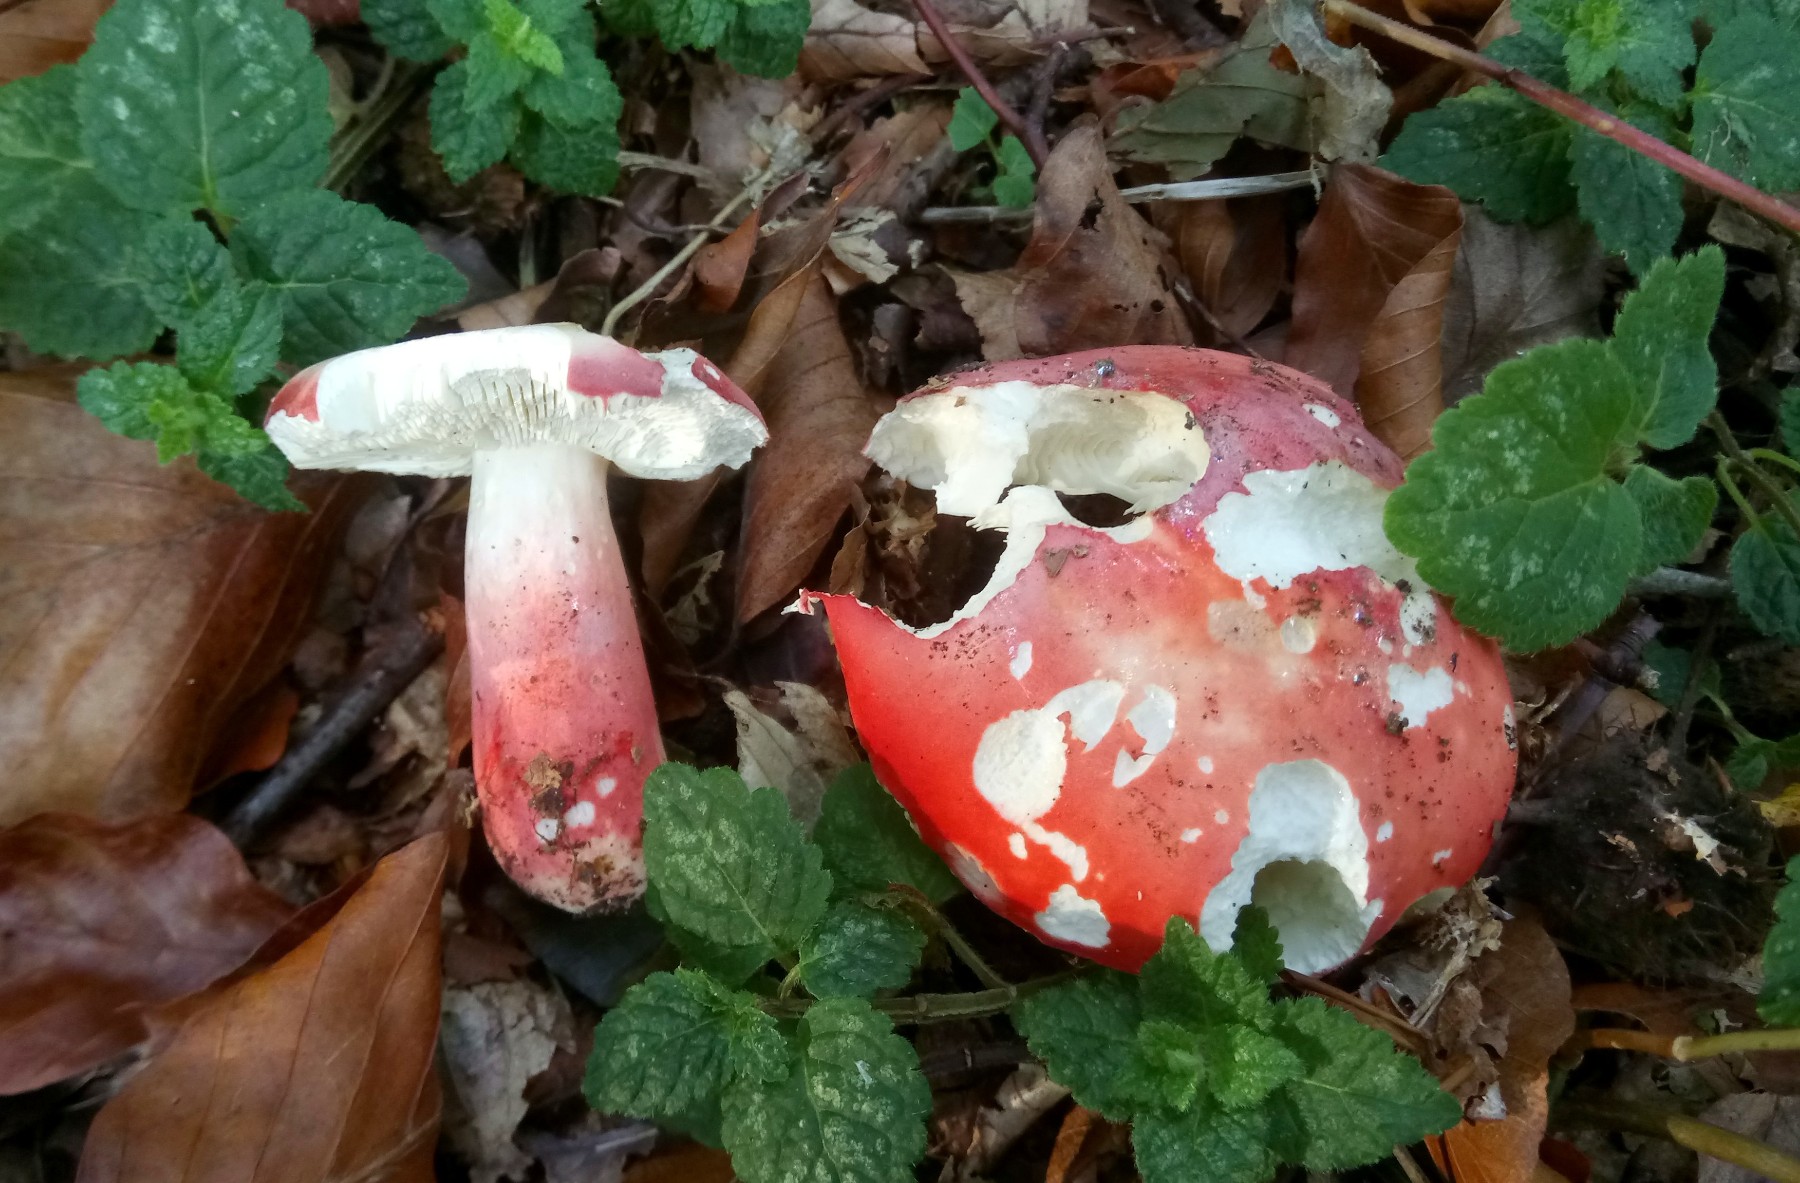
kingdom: Fungi
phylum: Basidiomycota
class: Agaricomycetes
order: Russulales
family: Russulaceae
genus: Russula
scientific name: Russula rosea
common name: fastkødet skørhat
